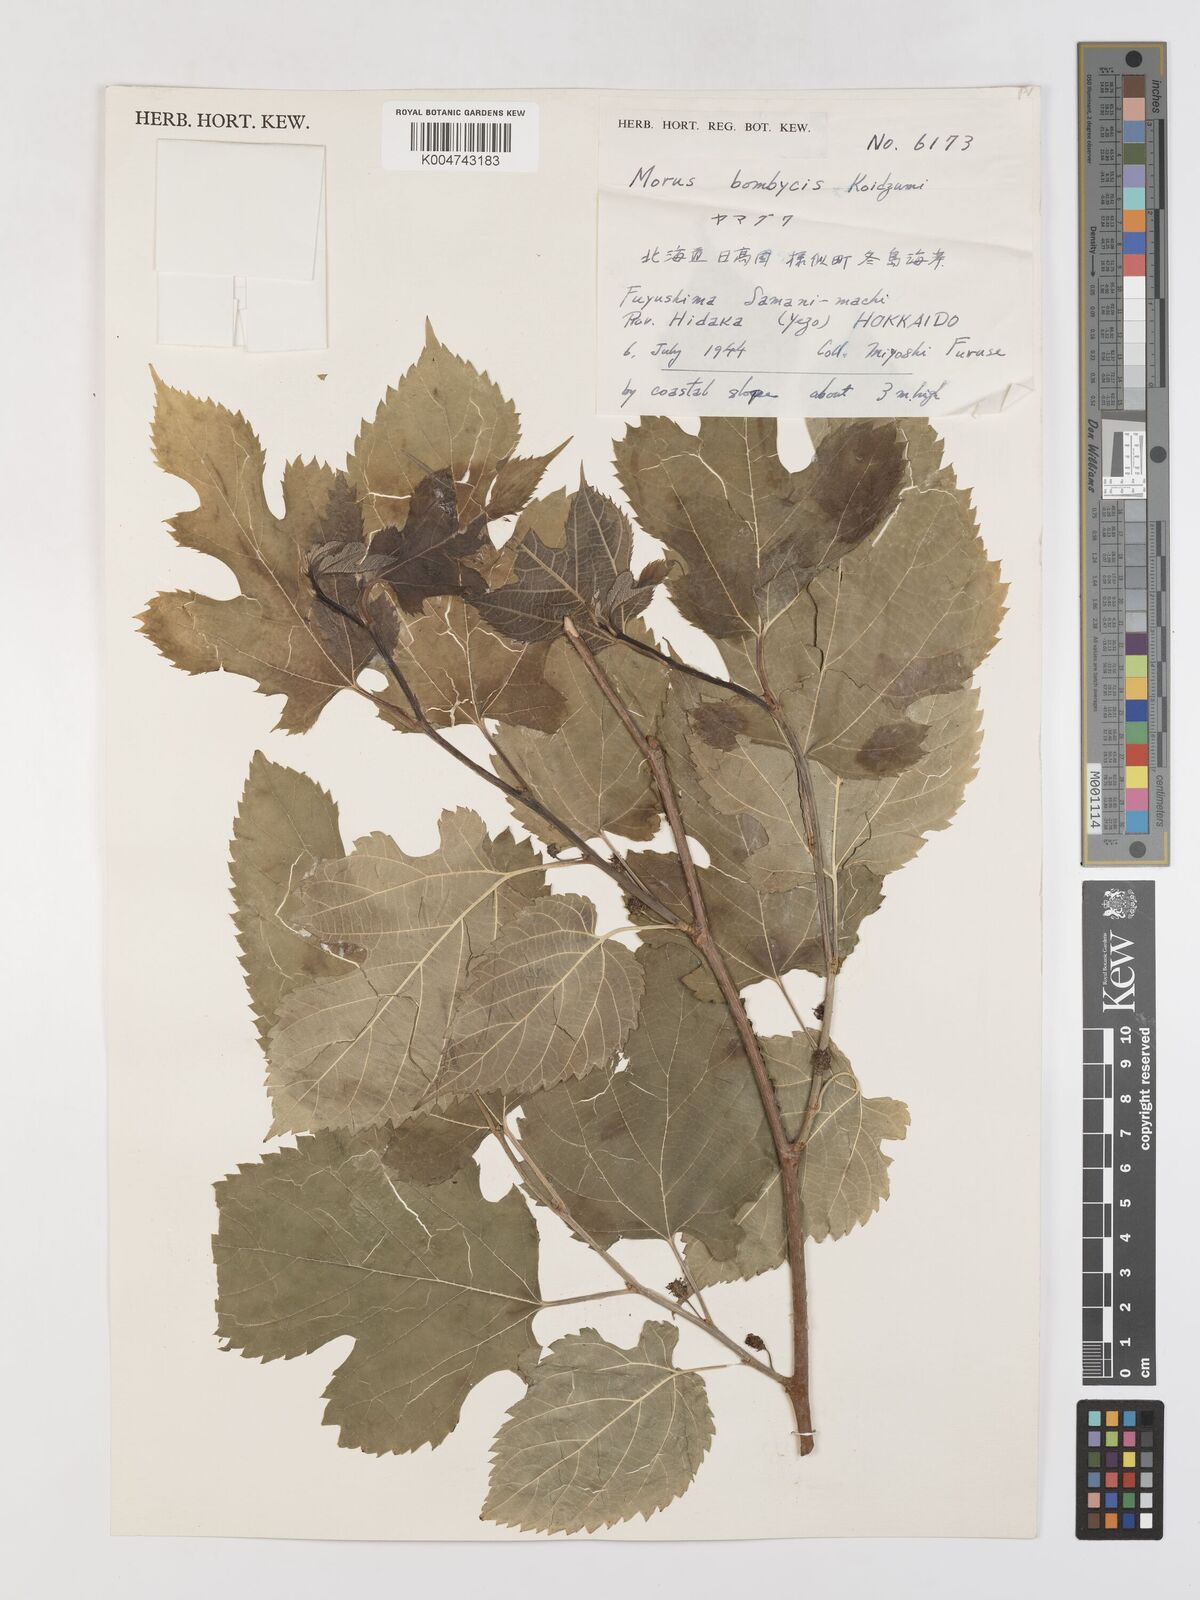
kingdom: Plantae
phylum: Tracheophyta
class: Magnoliopsida
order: Rosales
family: Moraceae
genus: Morus
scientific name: Morus indica
